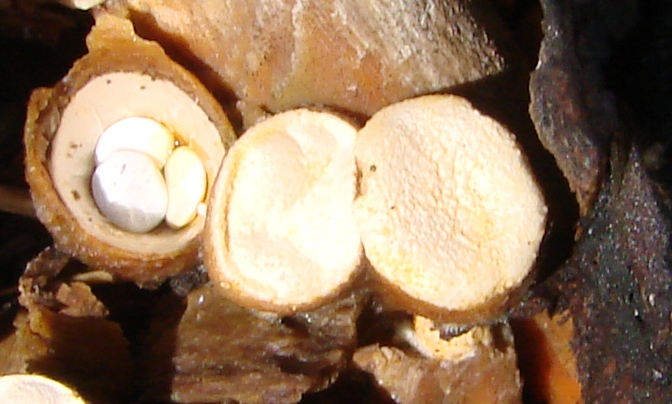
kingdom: Fungi
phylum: Basidiomycota
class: Agaricomycetes
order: Agaricales
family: Nidulariaceae
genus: Crucibulum
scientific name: Crucibulum crucibuliforme
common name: krukkesvamp
